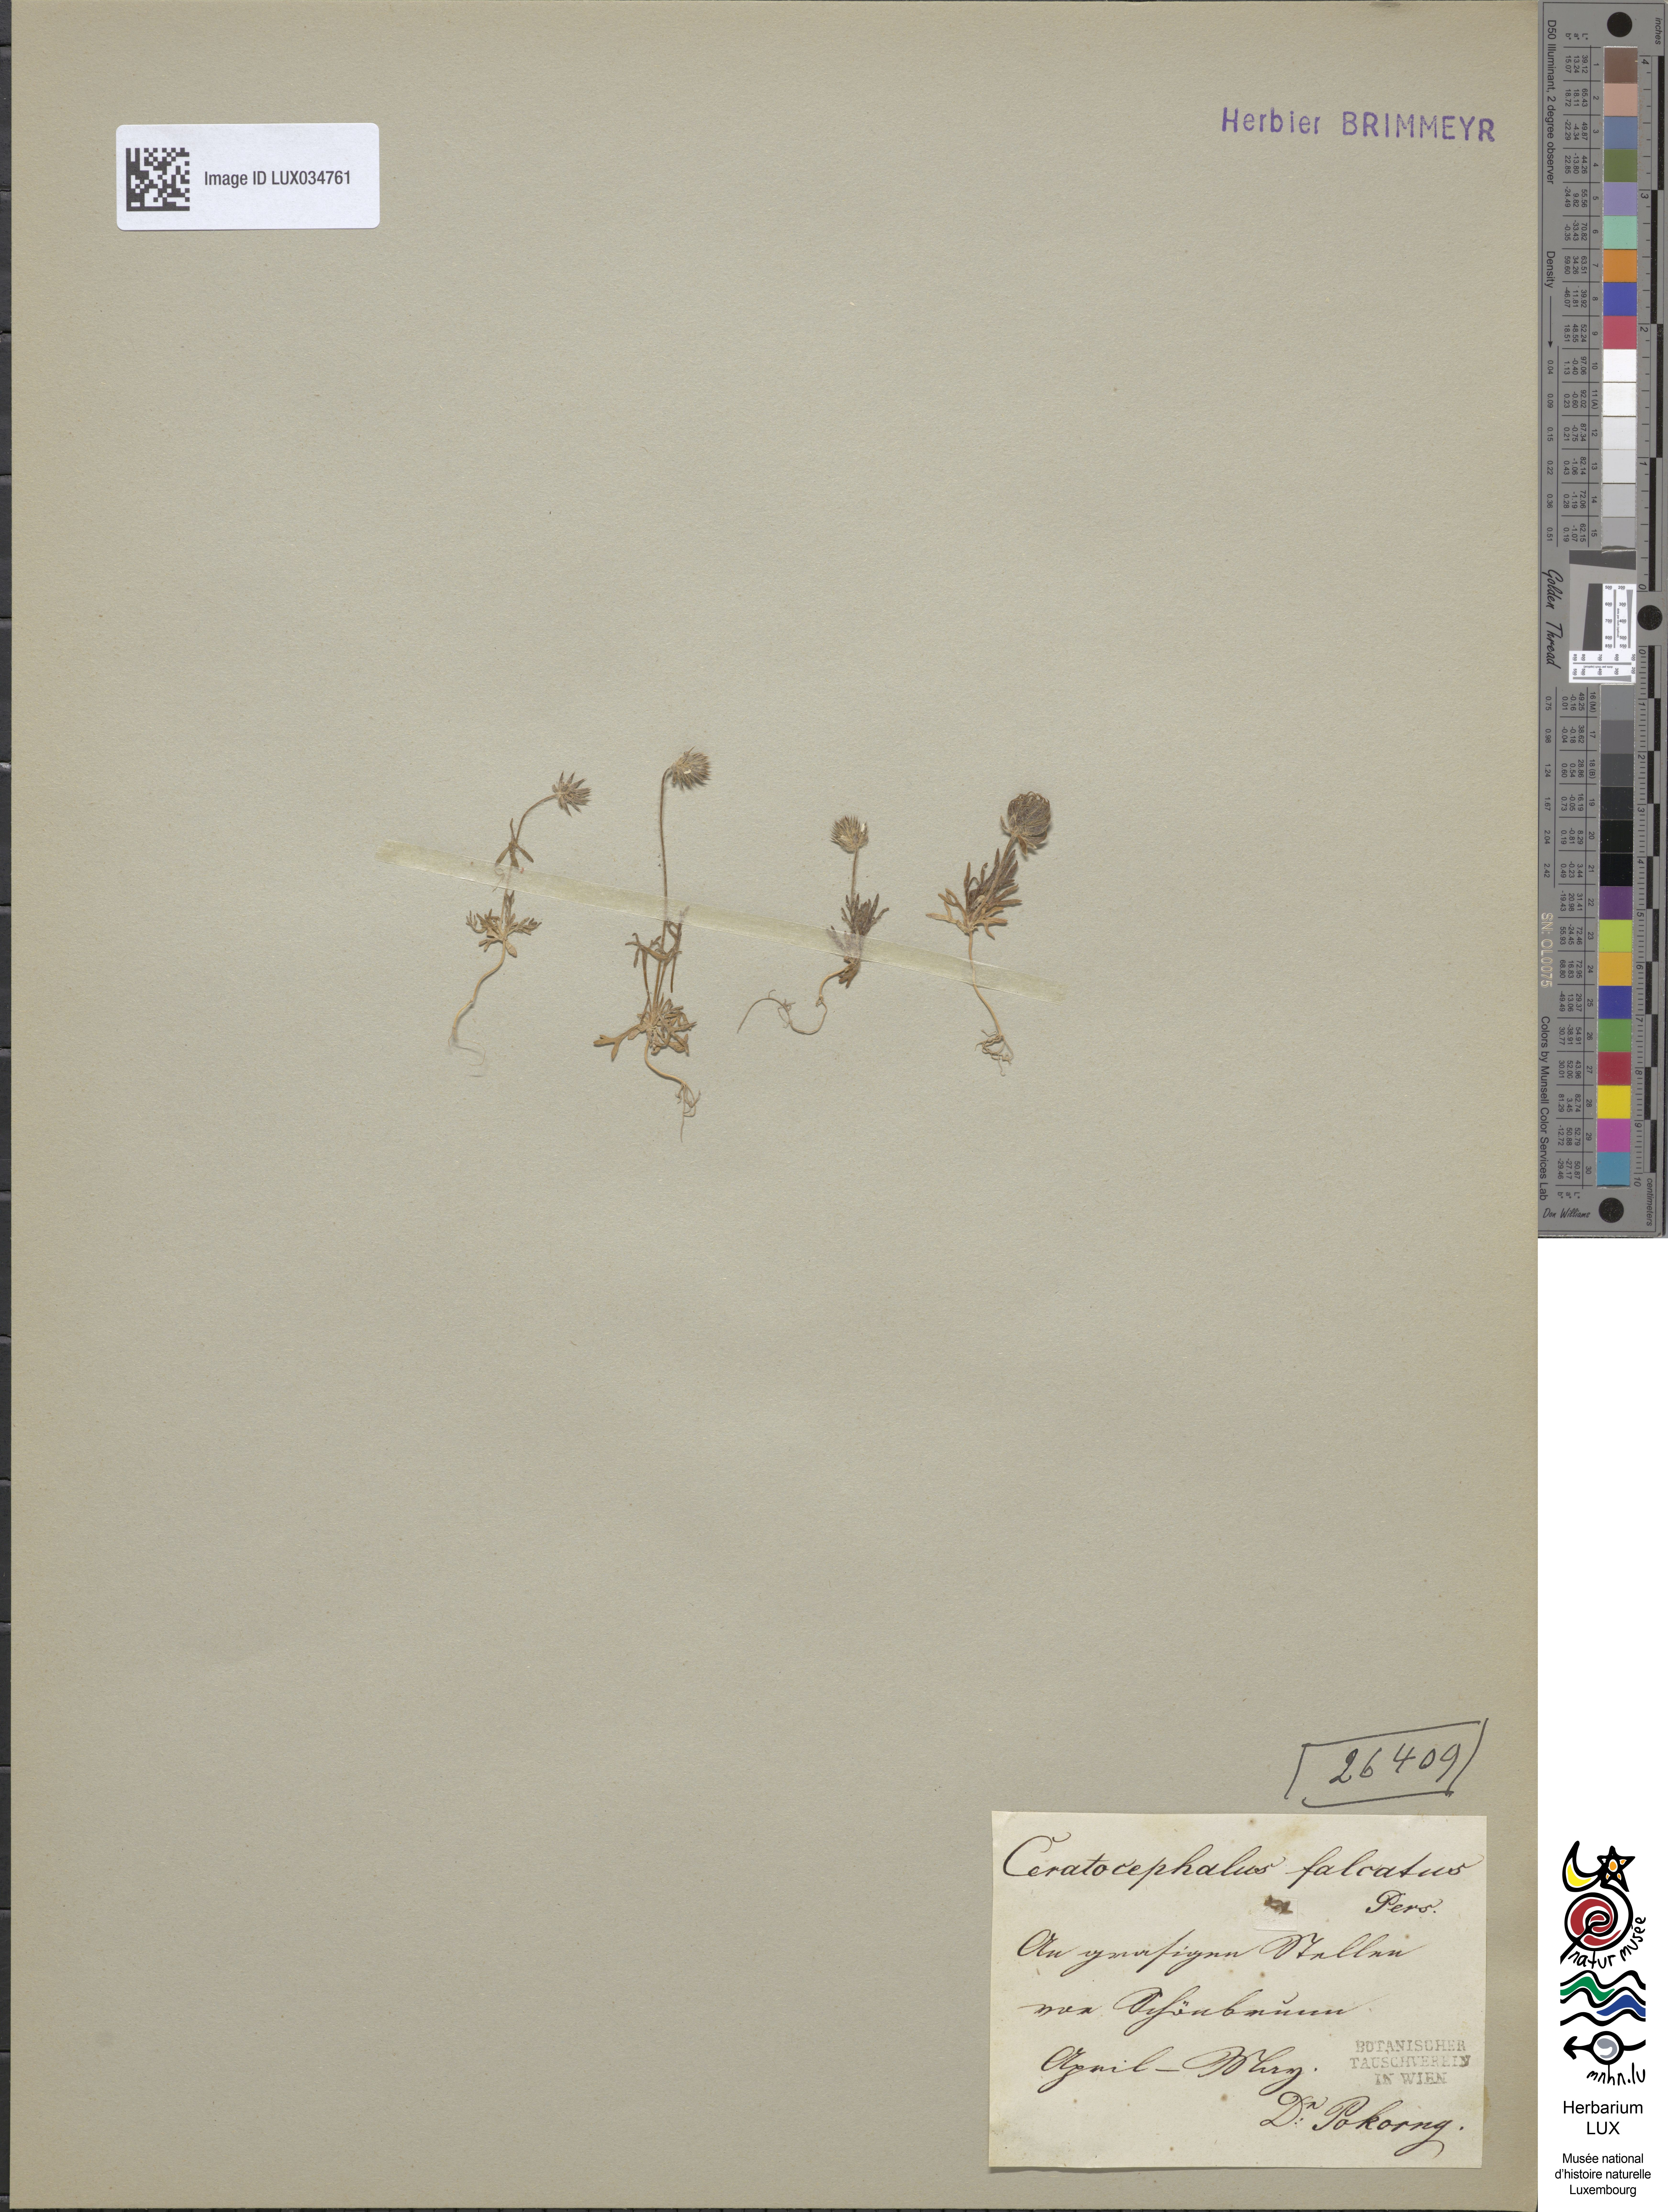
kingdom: Plantae
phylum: Tracheophyta
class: Magnoliopsida
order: Ranunculales
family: Ranunculaceae
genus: Ceratocephala
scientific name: Ceratocephala falcata
